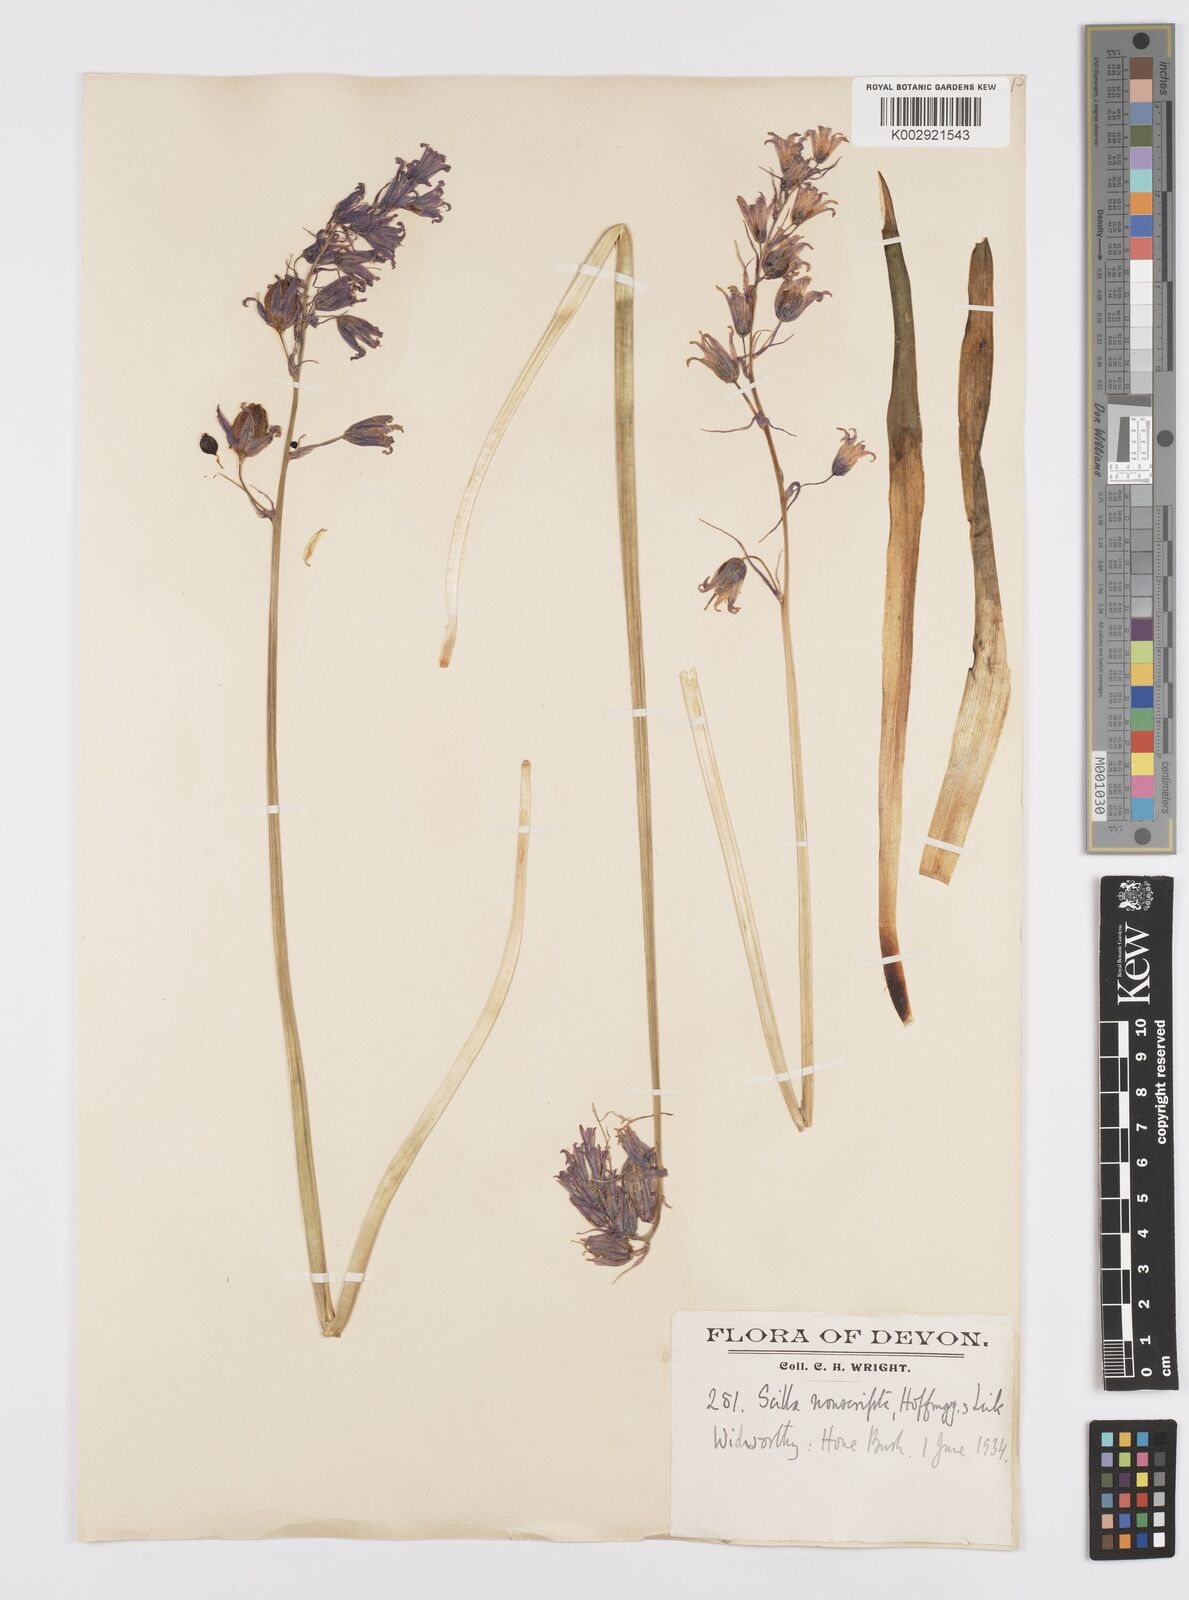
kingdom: Plantae
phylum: Tracheophyta
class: Liliopsida
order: Asparagales
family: Asparagaceae
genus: Hyacinthoides
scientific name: Hyacinthoides non-scripta
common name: Bluebell
